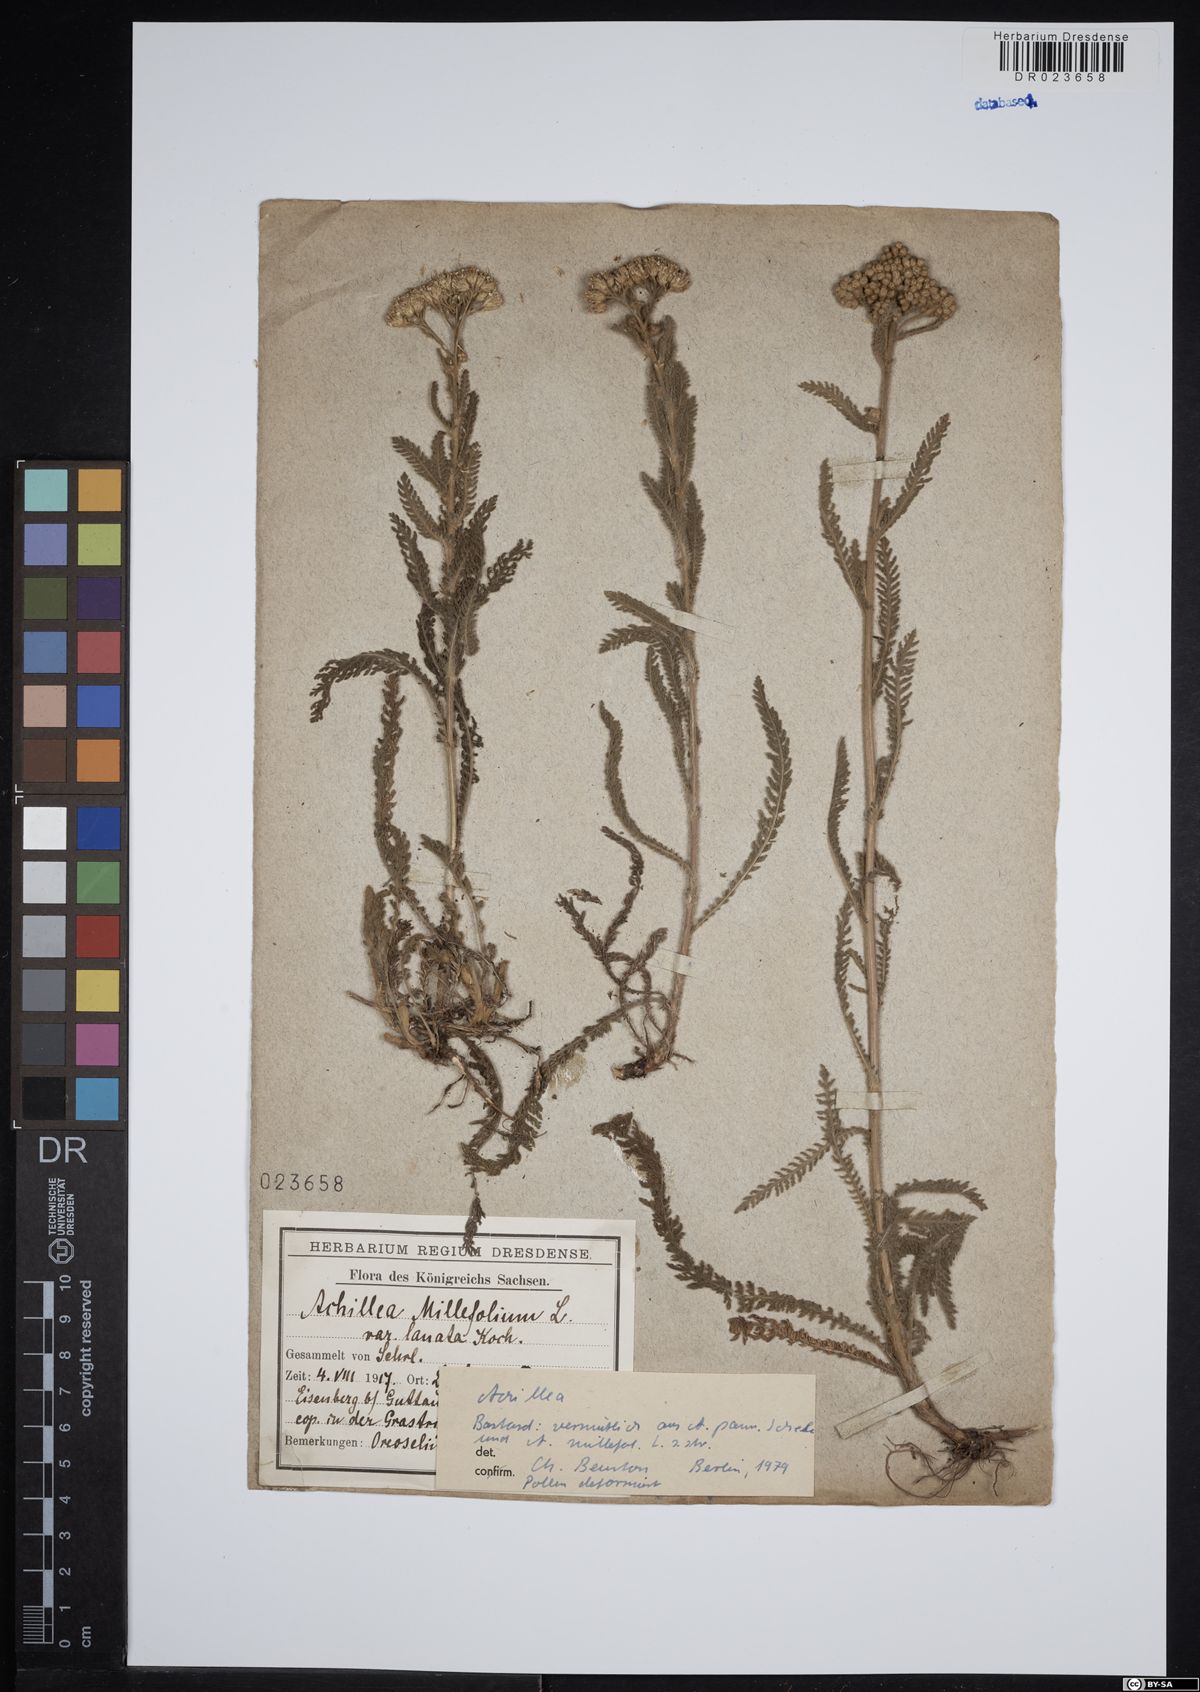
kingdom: Plantae
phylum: Tracheophyta
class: Magnoliopsida
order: Asterales
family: Asteraceae
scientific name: Asteraceae
